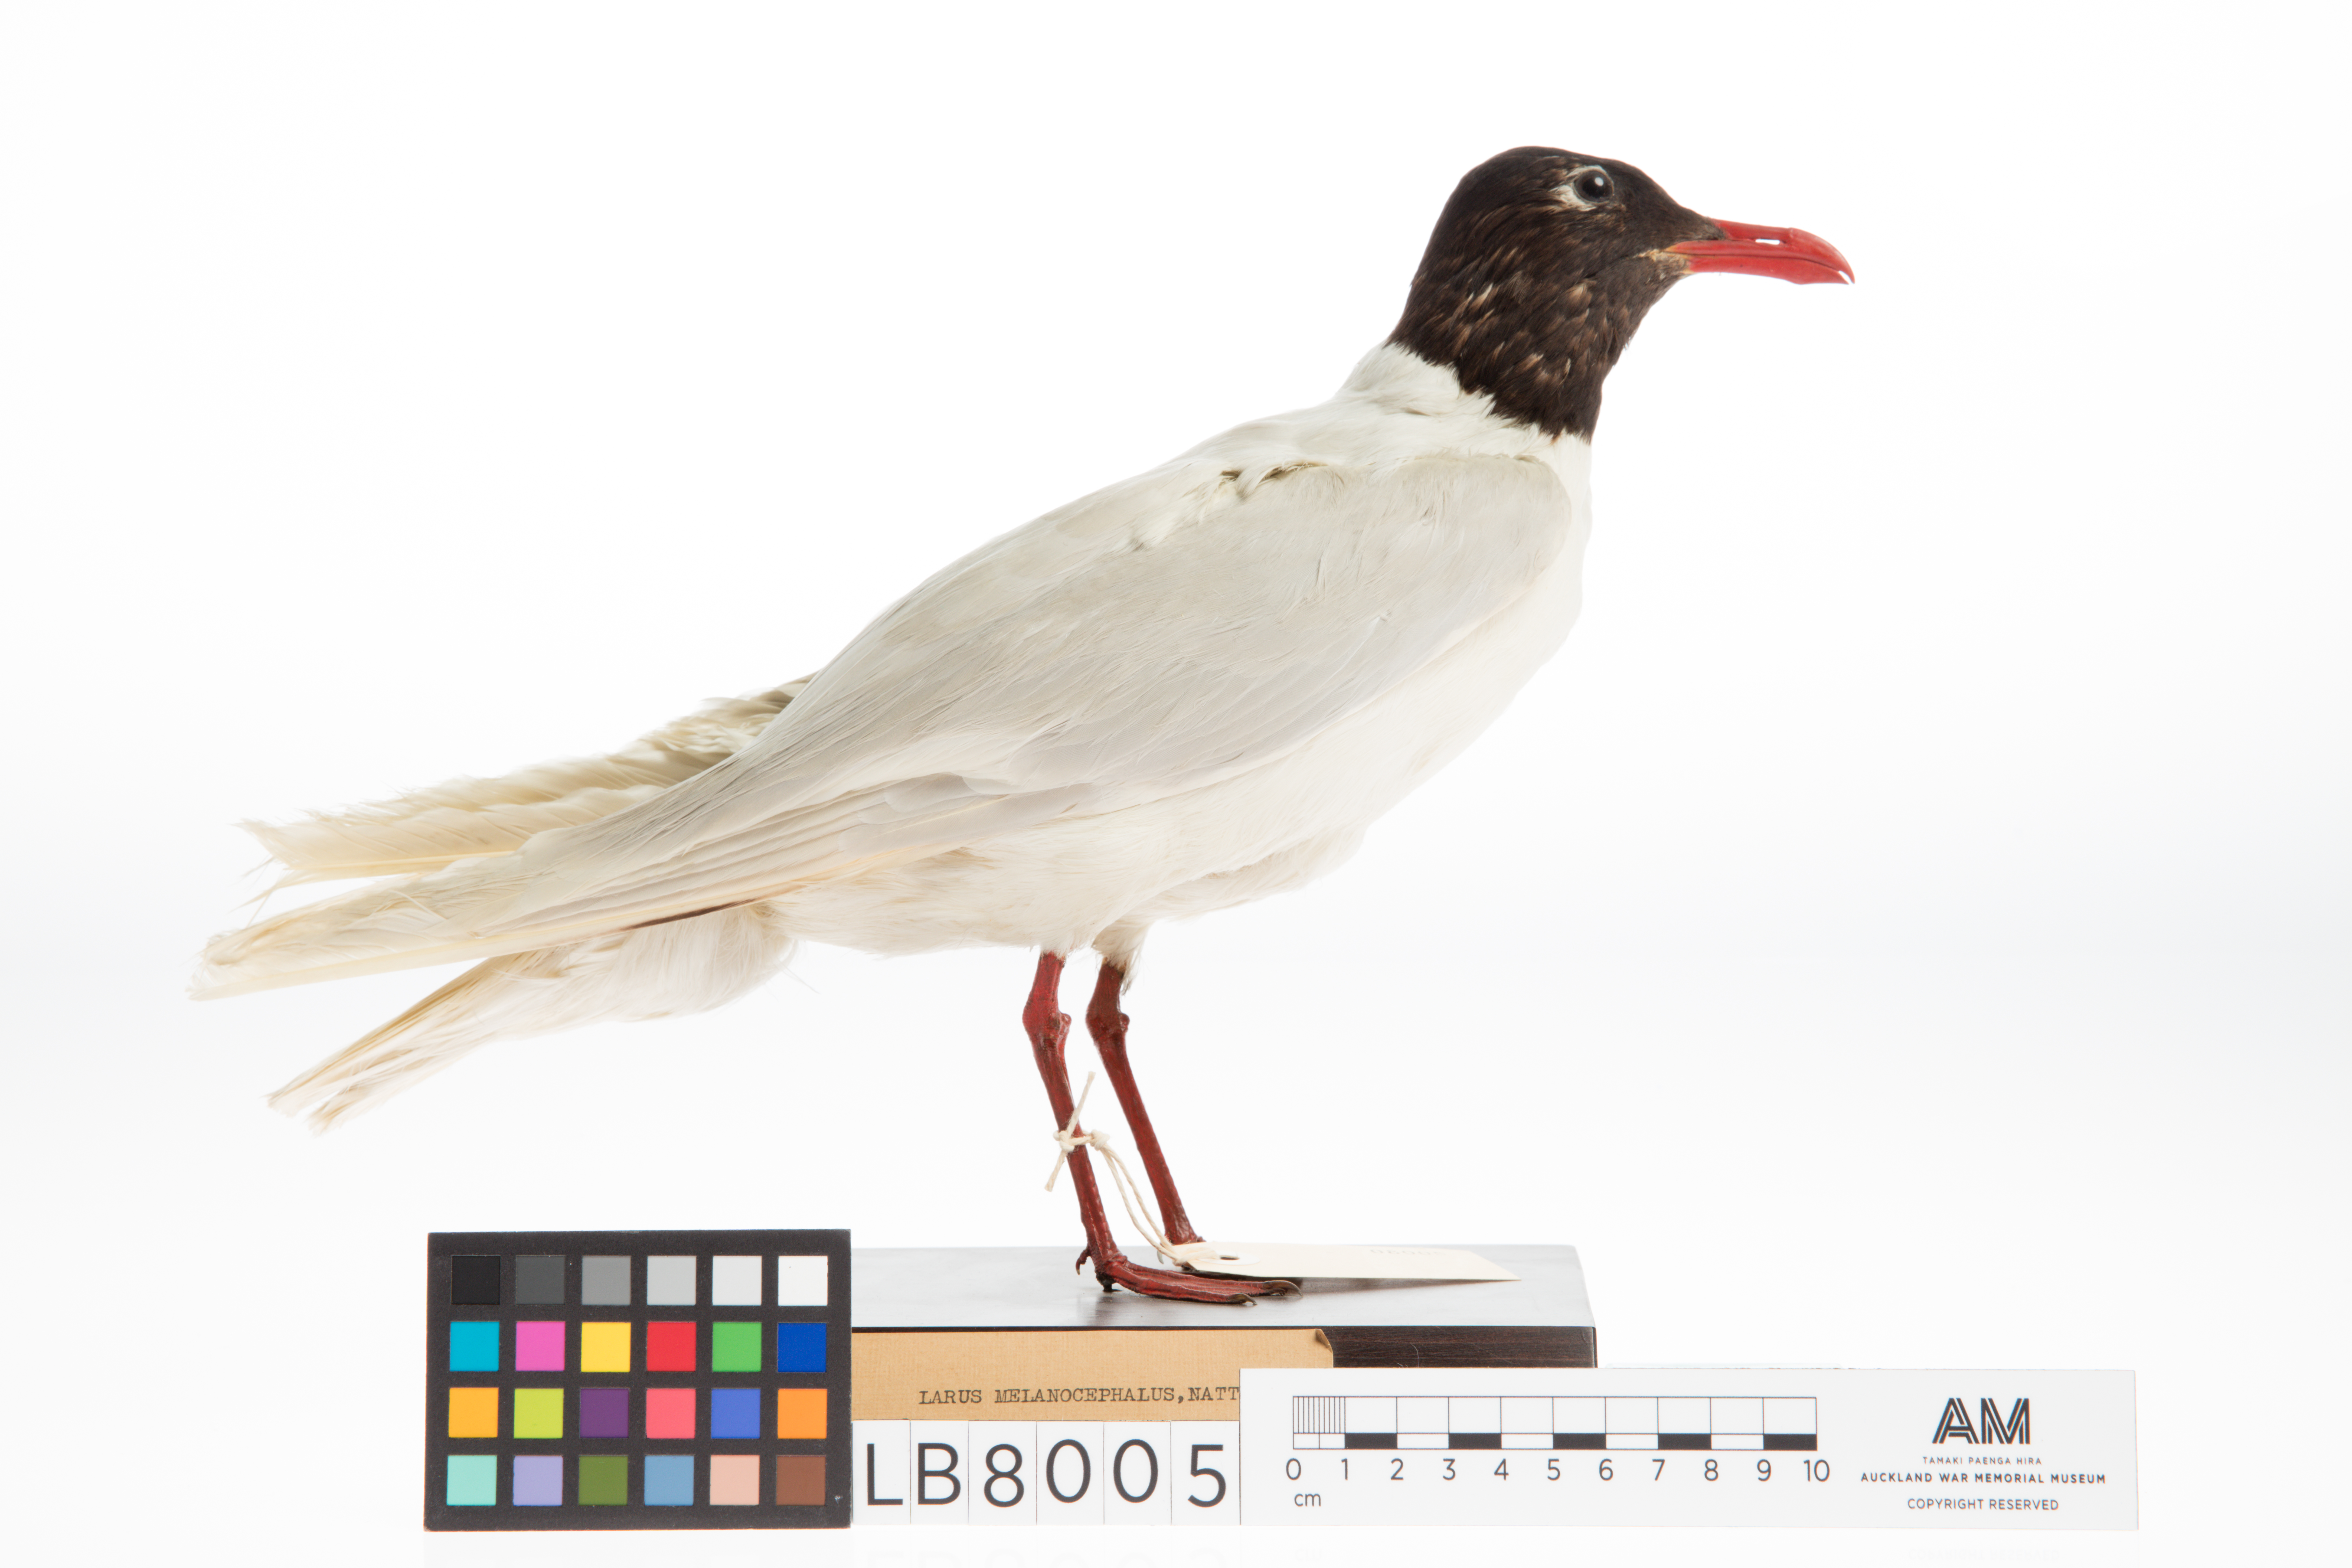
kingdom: Animalia
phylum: Chordata
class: Aves
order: Charadriiformes
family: Laridae
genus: Ichthyaetus
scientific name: Ichthyaetus melanocephalus
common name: Mediterranean gull
